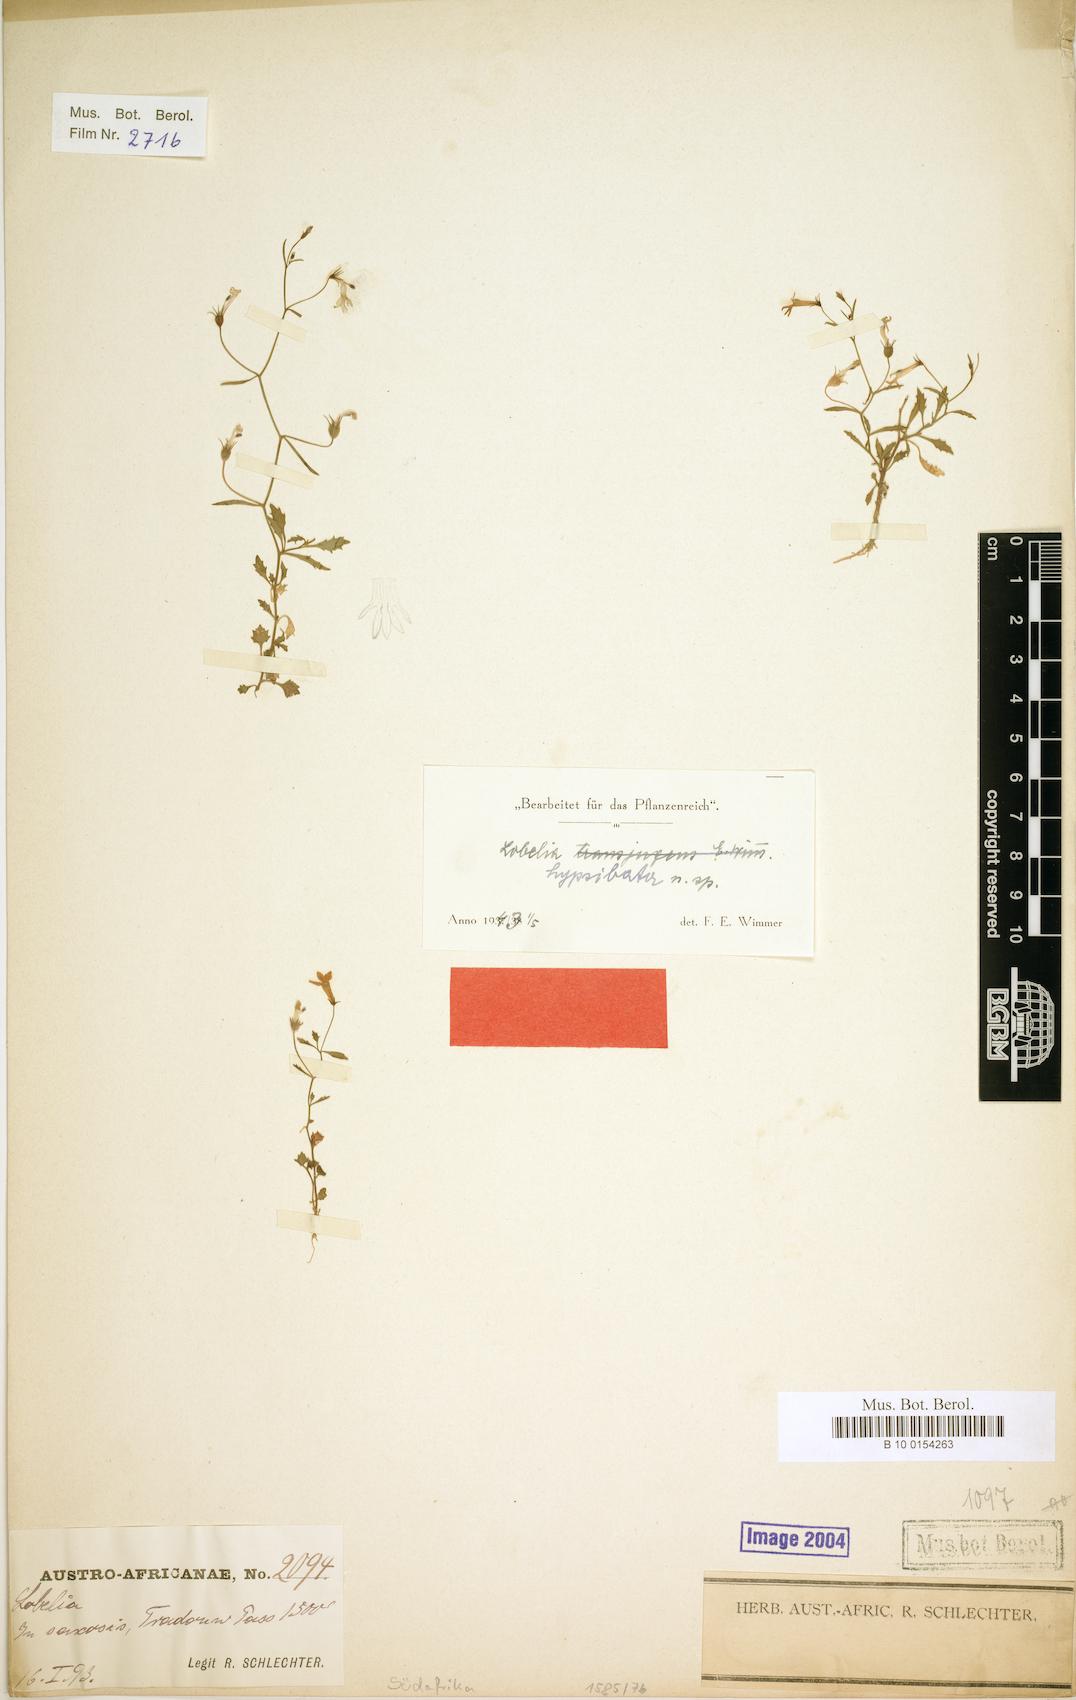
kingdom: Plantae
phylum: Tracheophyta
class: Magnoliopsida
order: Asterales
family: Campanulaceae
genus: Lobelia
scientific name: Lobelia hypsibata
